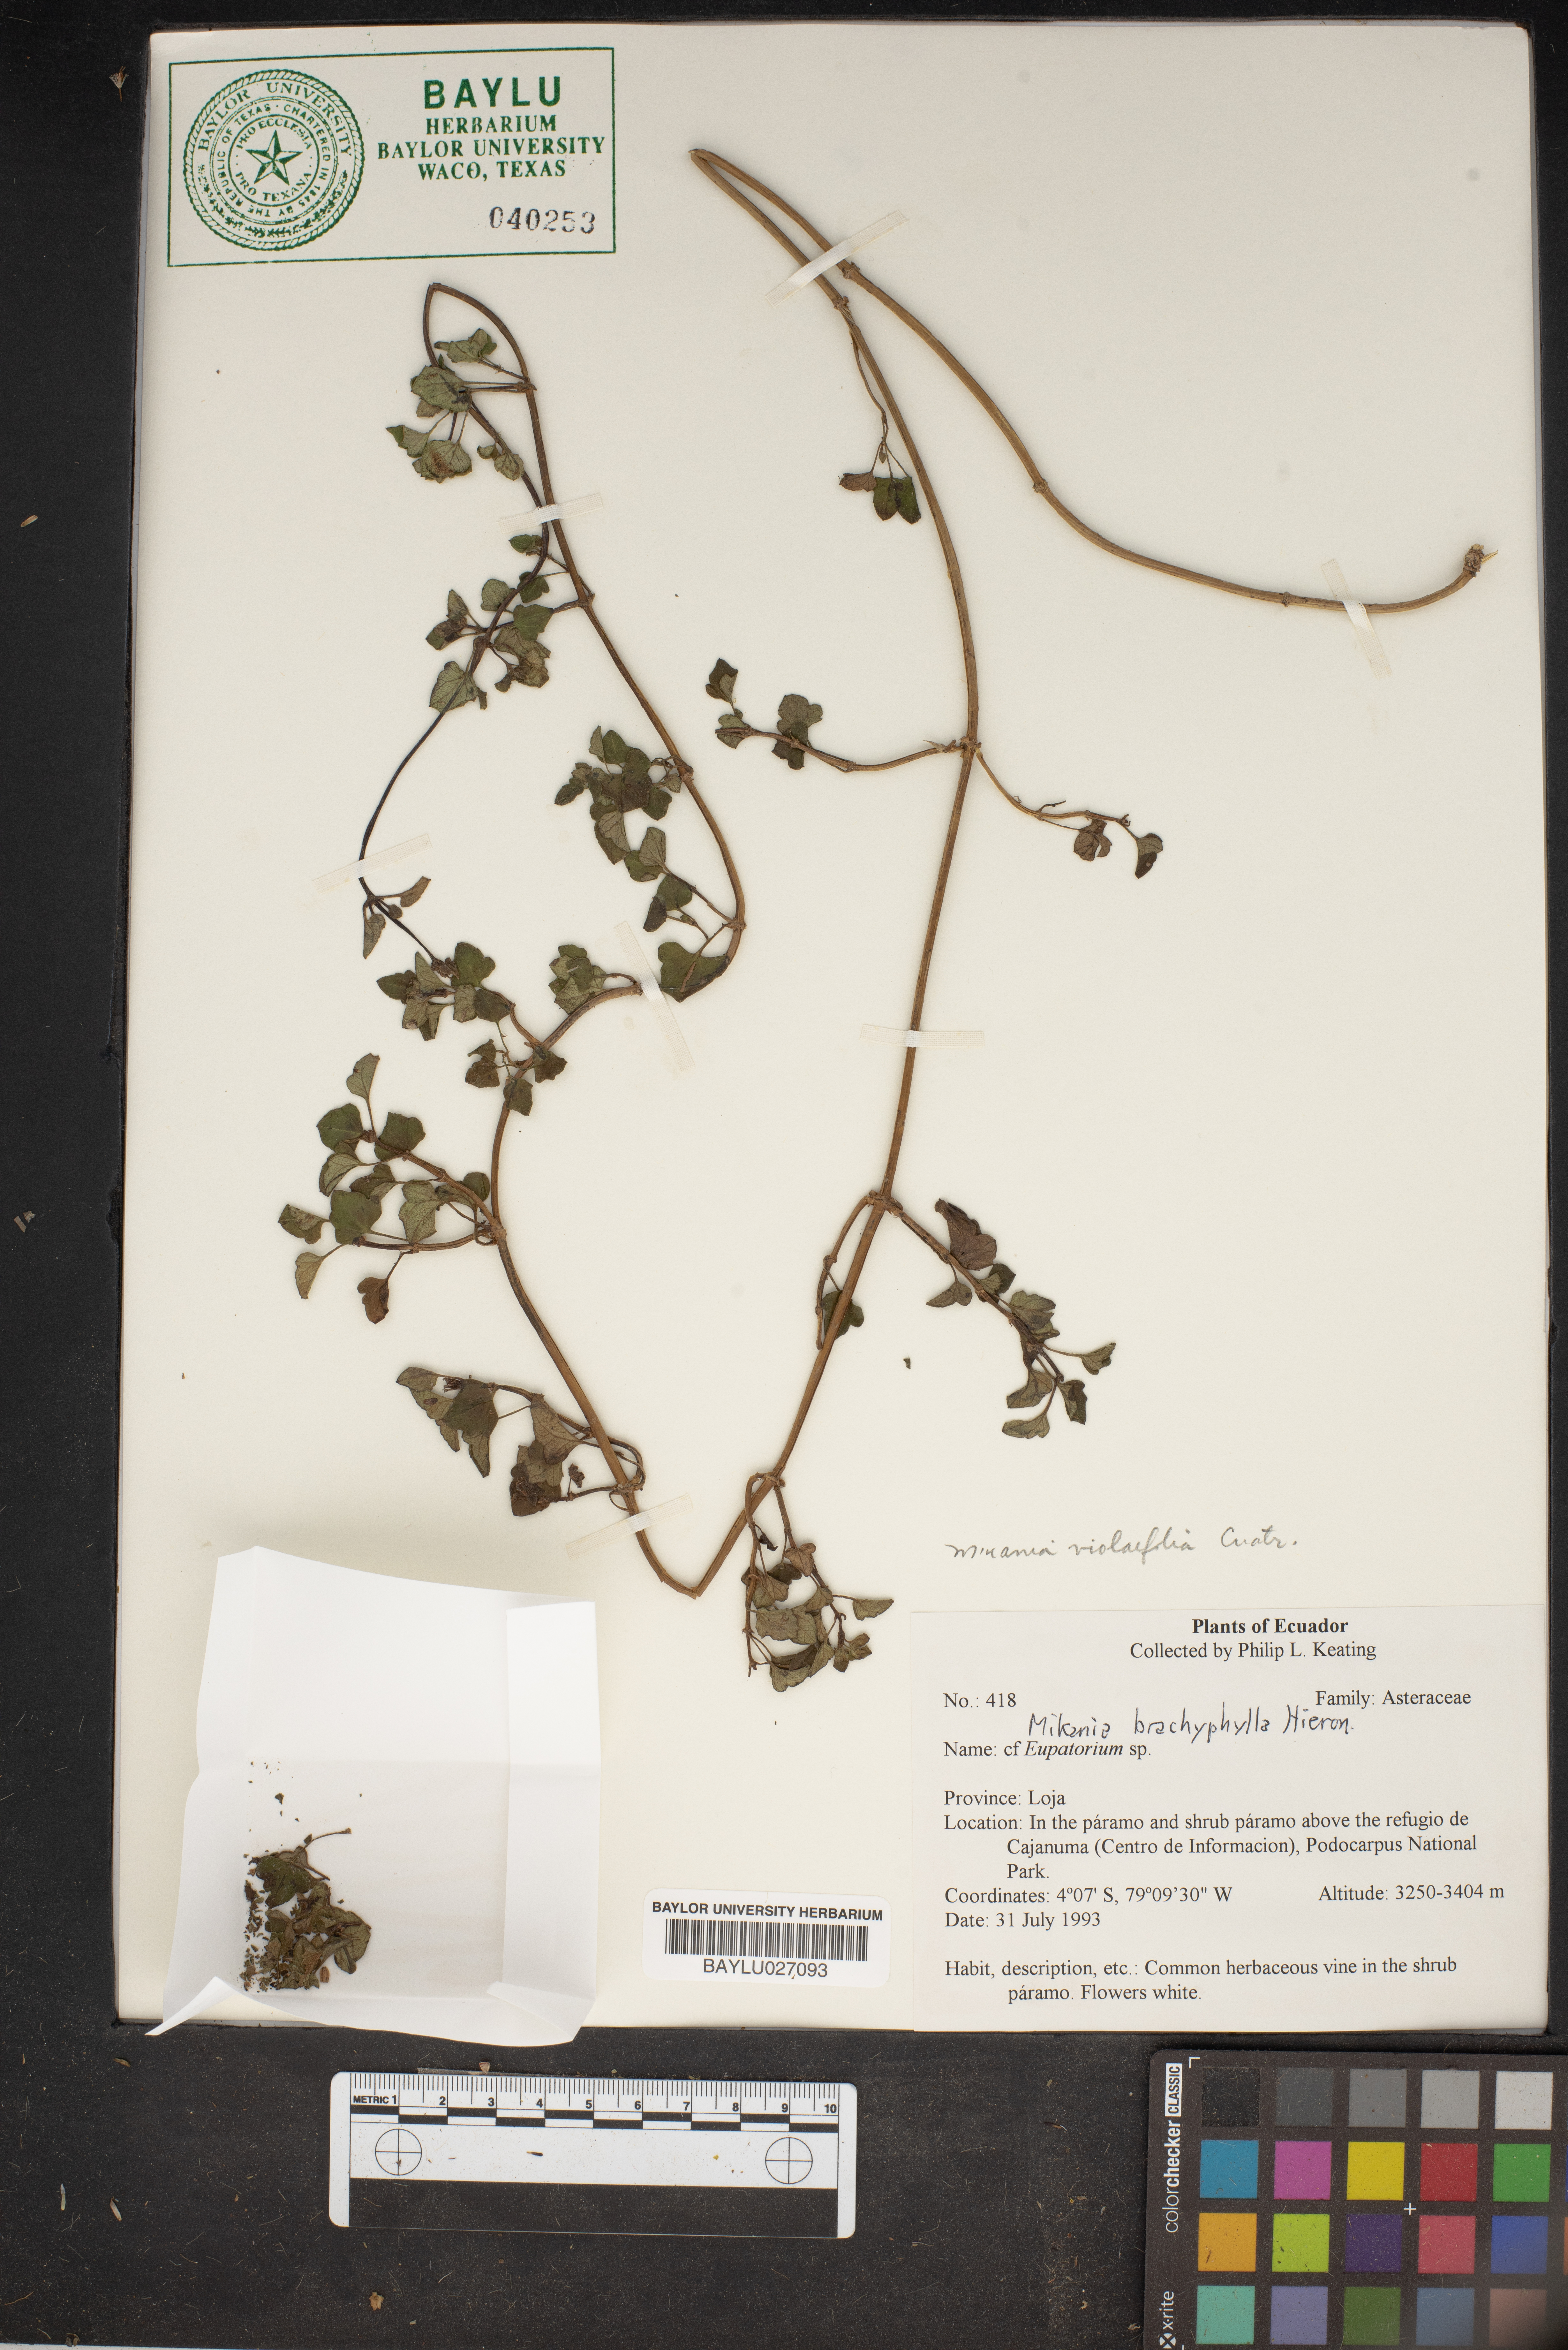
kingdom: Plantae
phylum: Tracheophyta
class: Magnoliopsida
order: Asterales
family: Asteraceae
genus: Mikania
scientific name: Mikania
